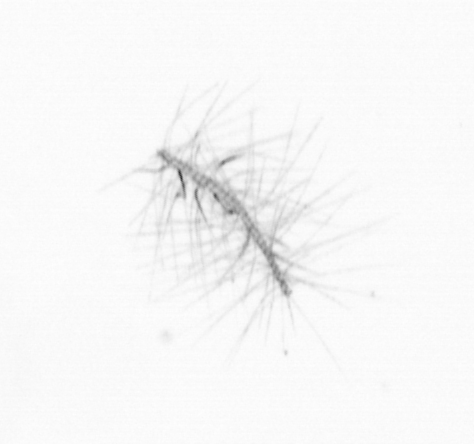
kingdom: Chromista
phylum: Ochrophyta
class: Bacillariophyceae
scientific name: Bacillariophyceae
